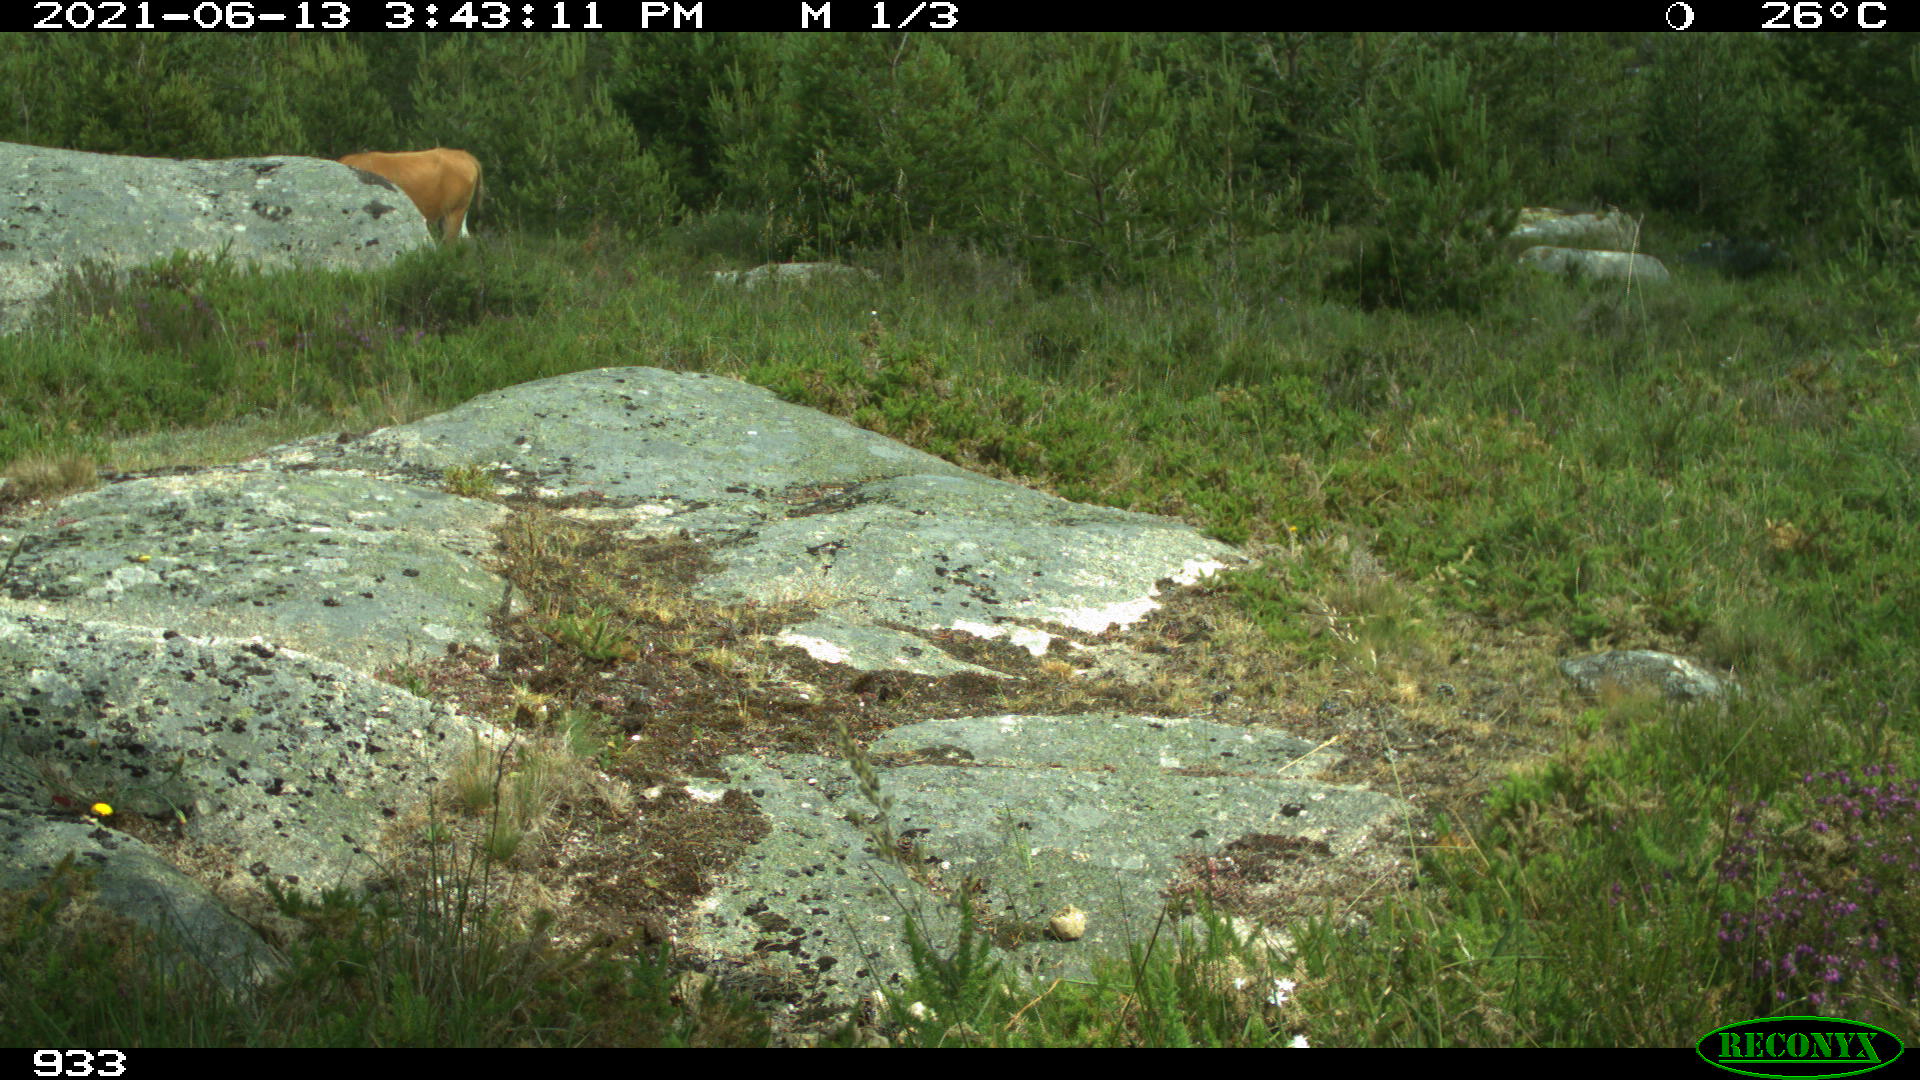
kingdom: Animalia
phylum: Chordata
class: Mammalia
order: Artiodactyla
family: Bovidae
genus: Bos
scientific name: Bos taurus
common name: Domesticated cattle
